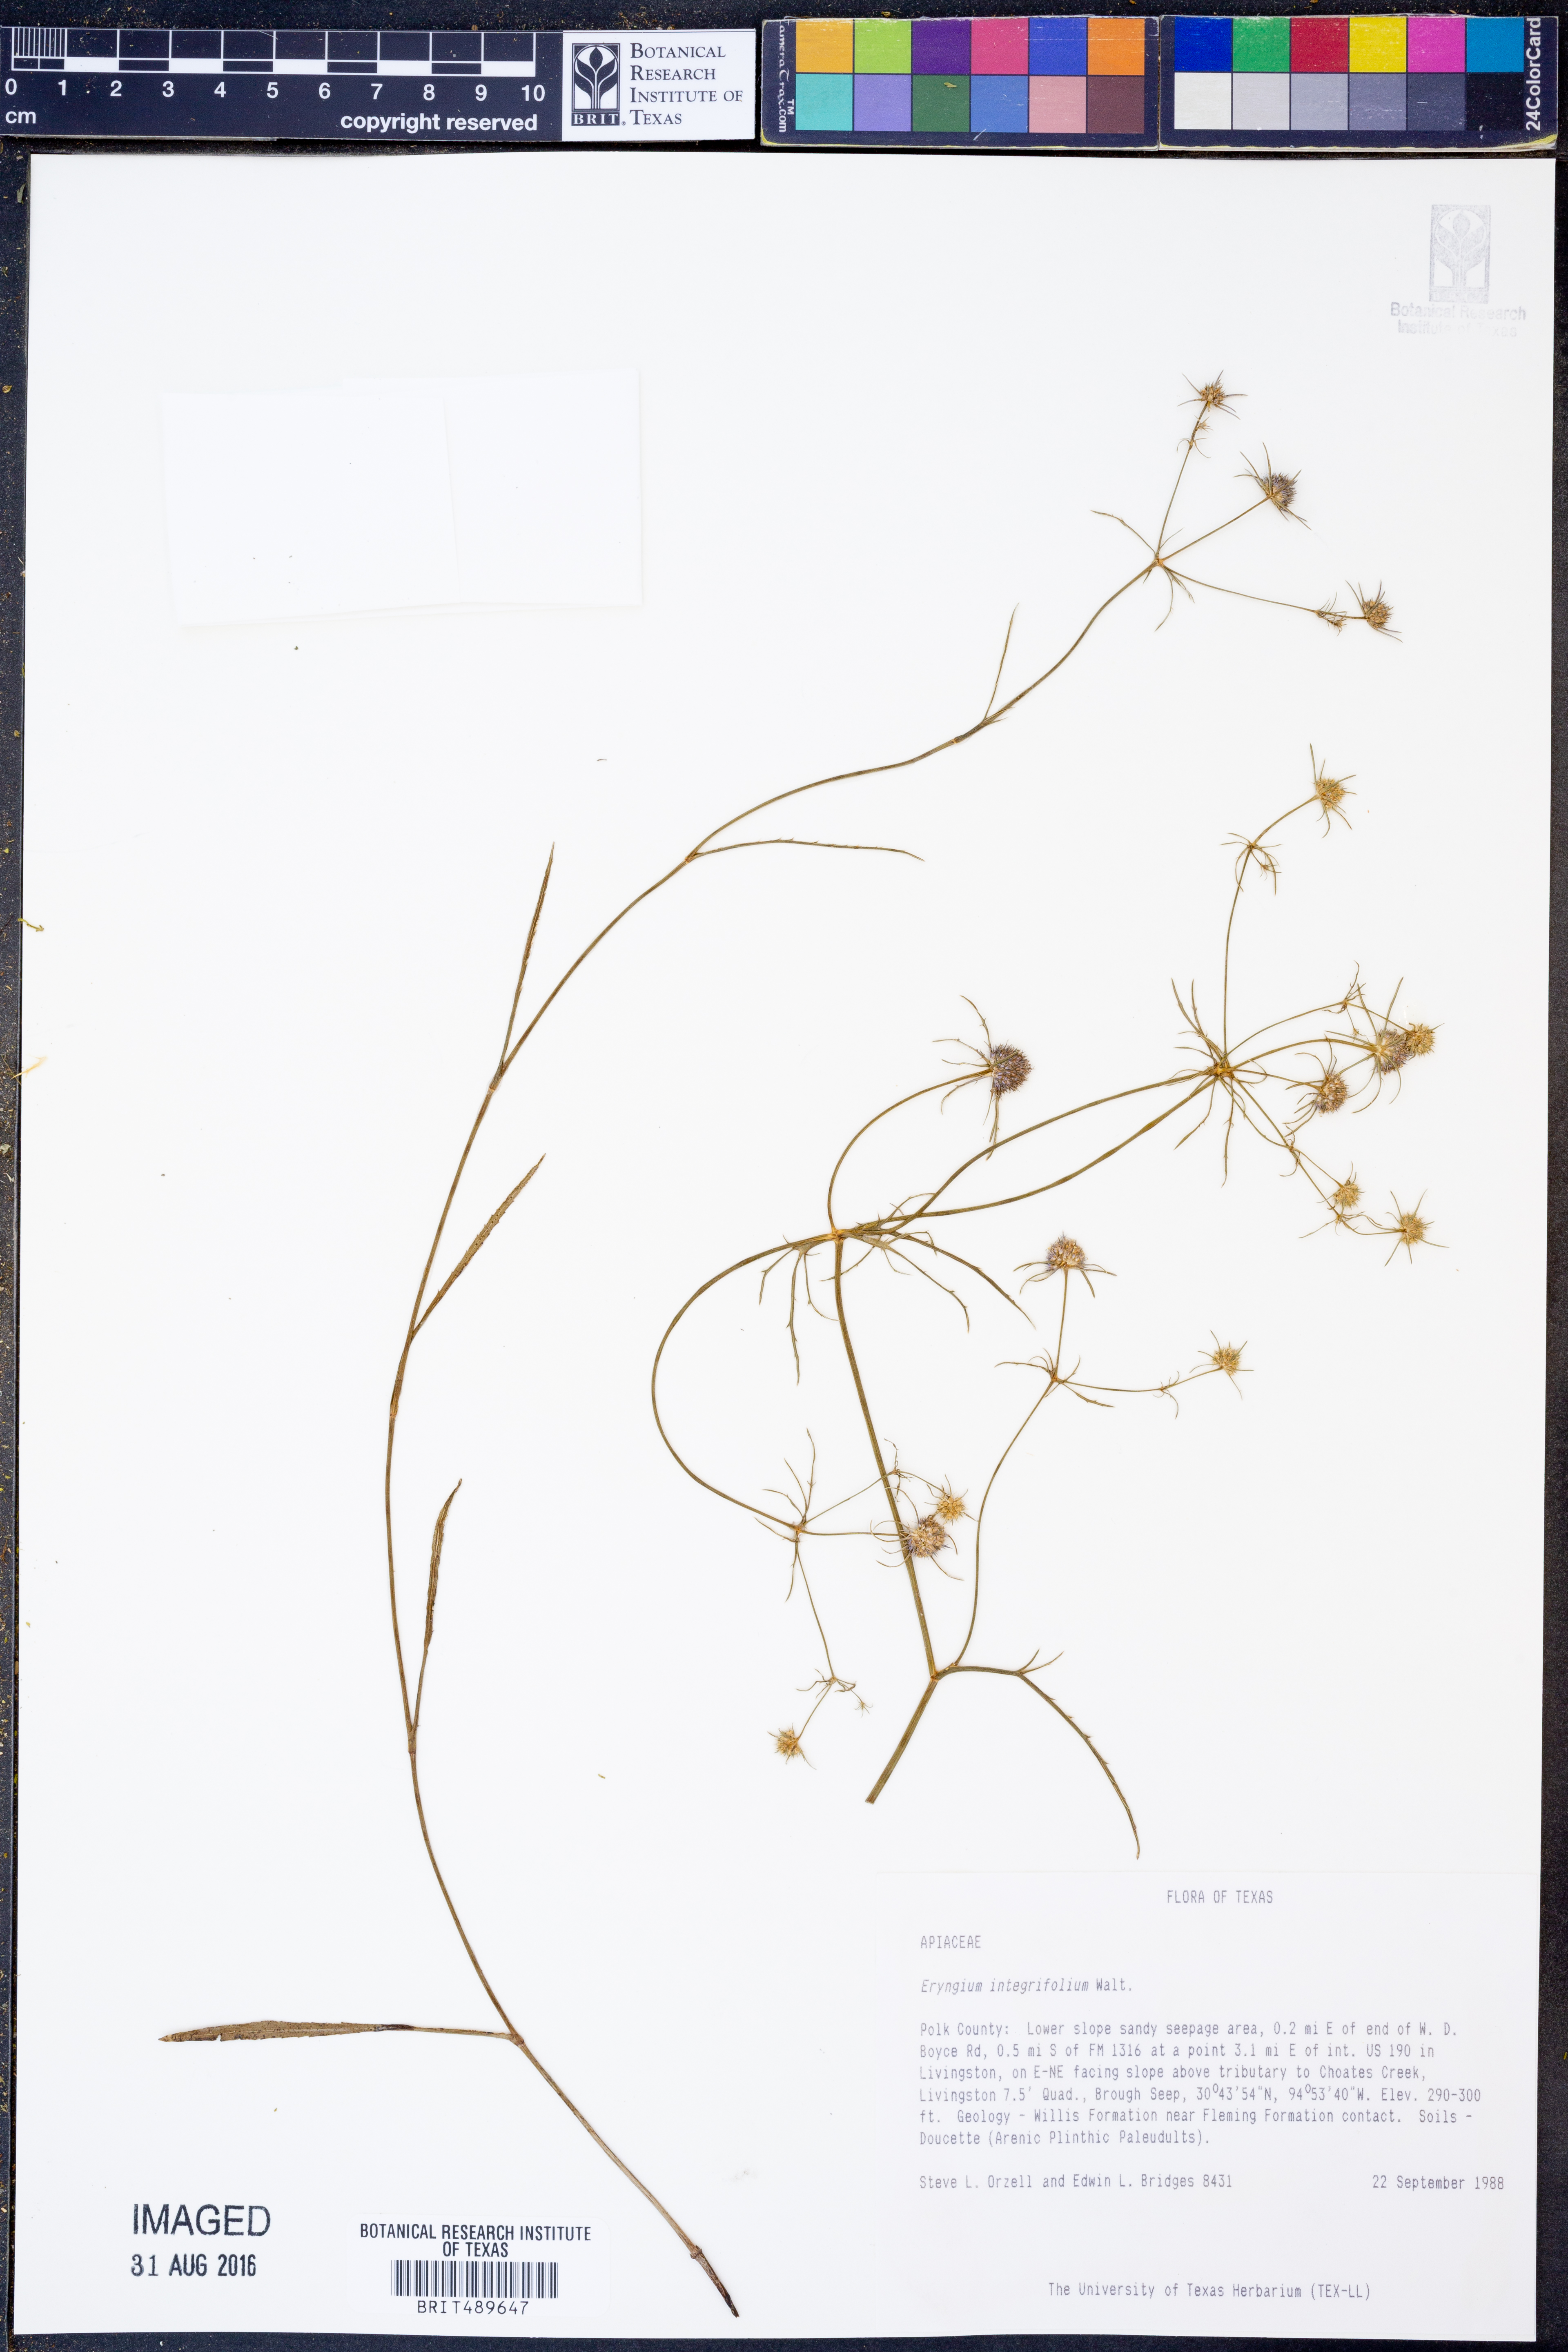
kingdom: Plantae
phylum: Tracheophyta
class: Magnoliopsida
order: Apiales
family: Apiaceae
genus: Eryngium
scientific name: Eryngium integrifolium
